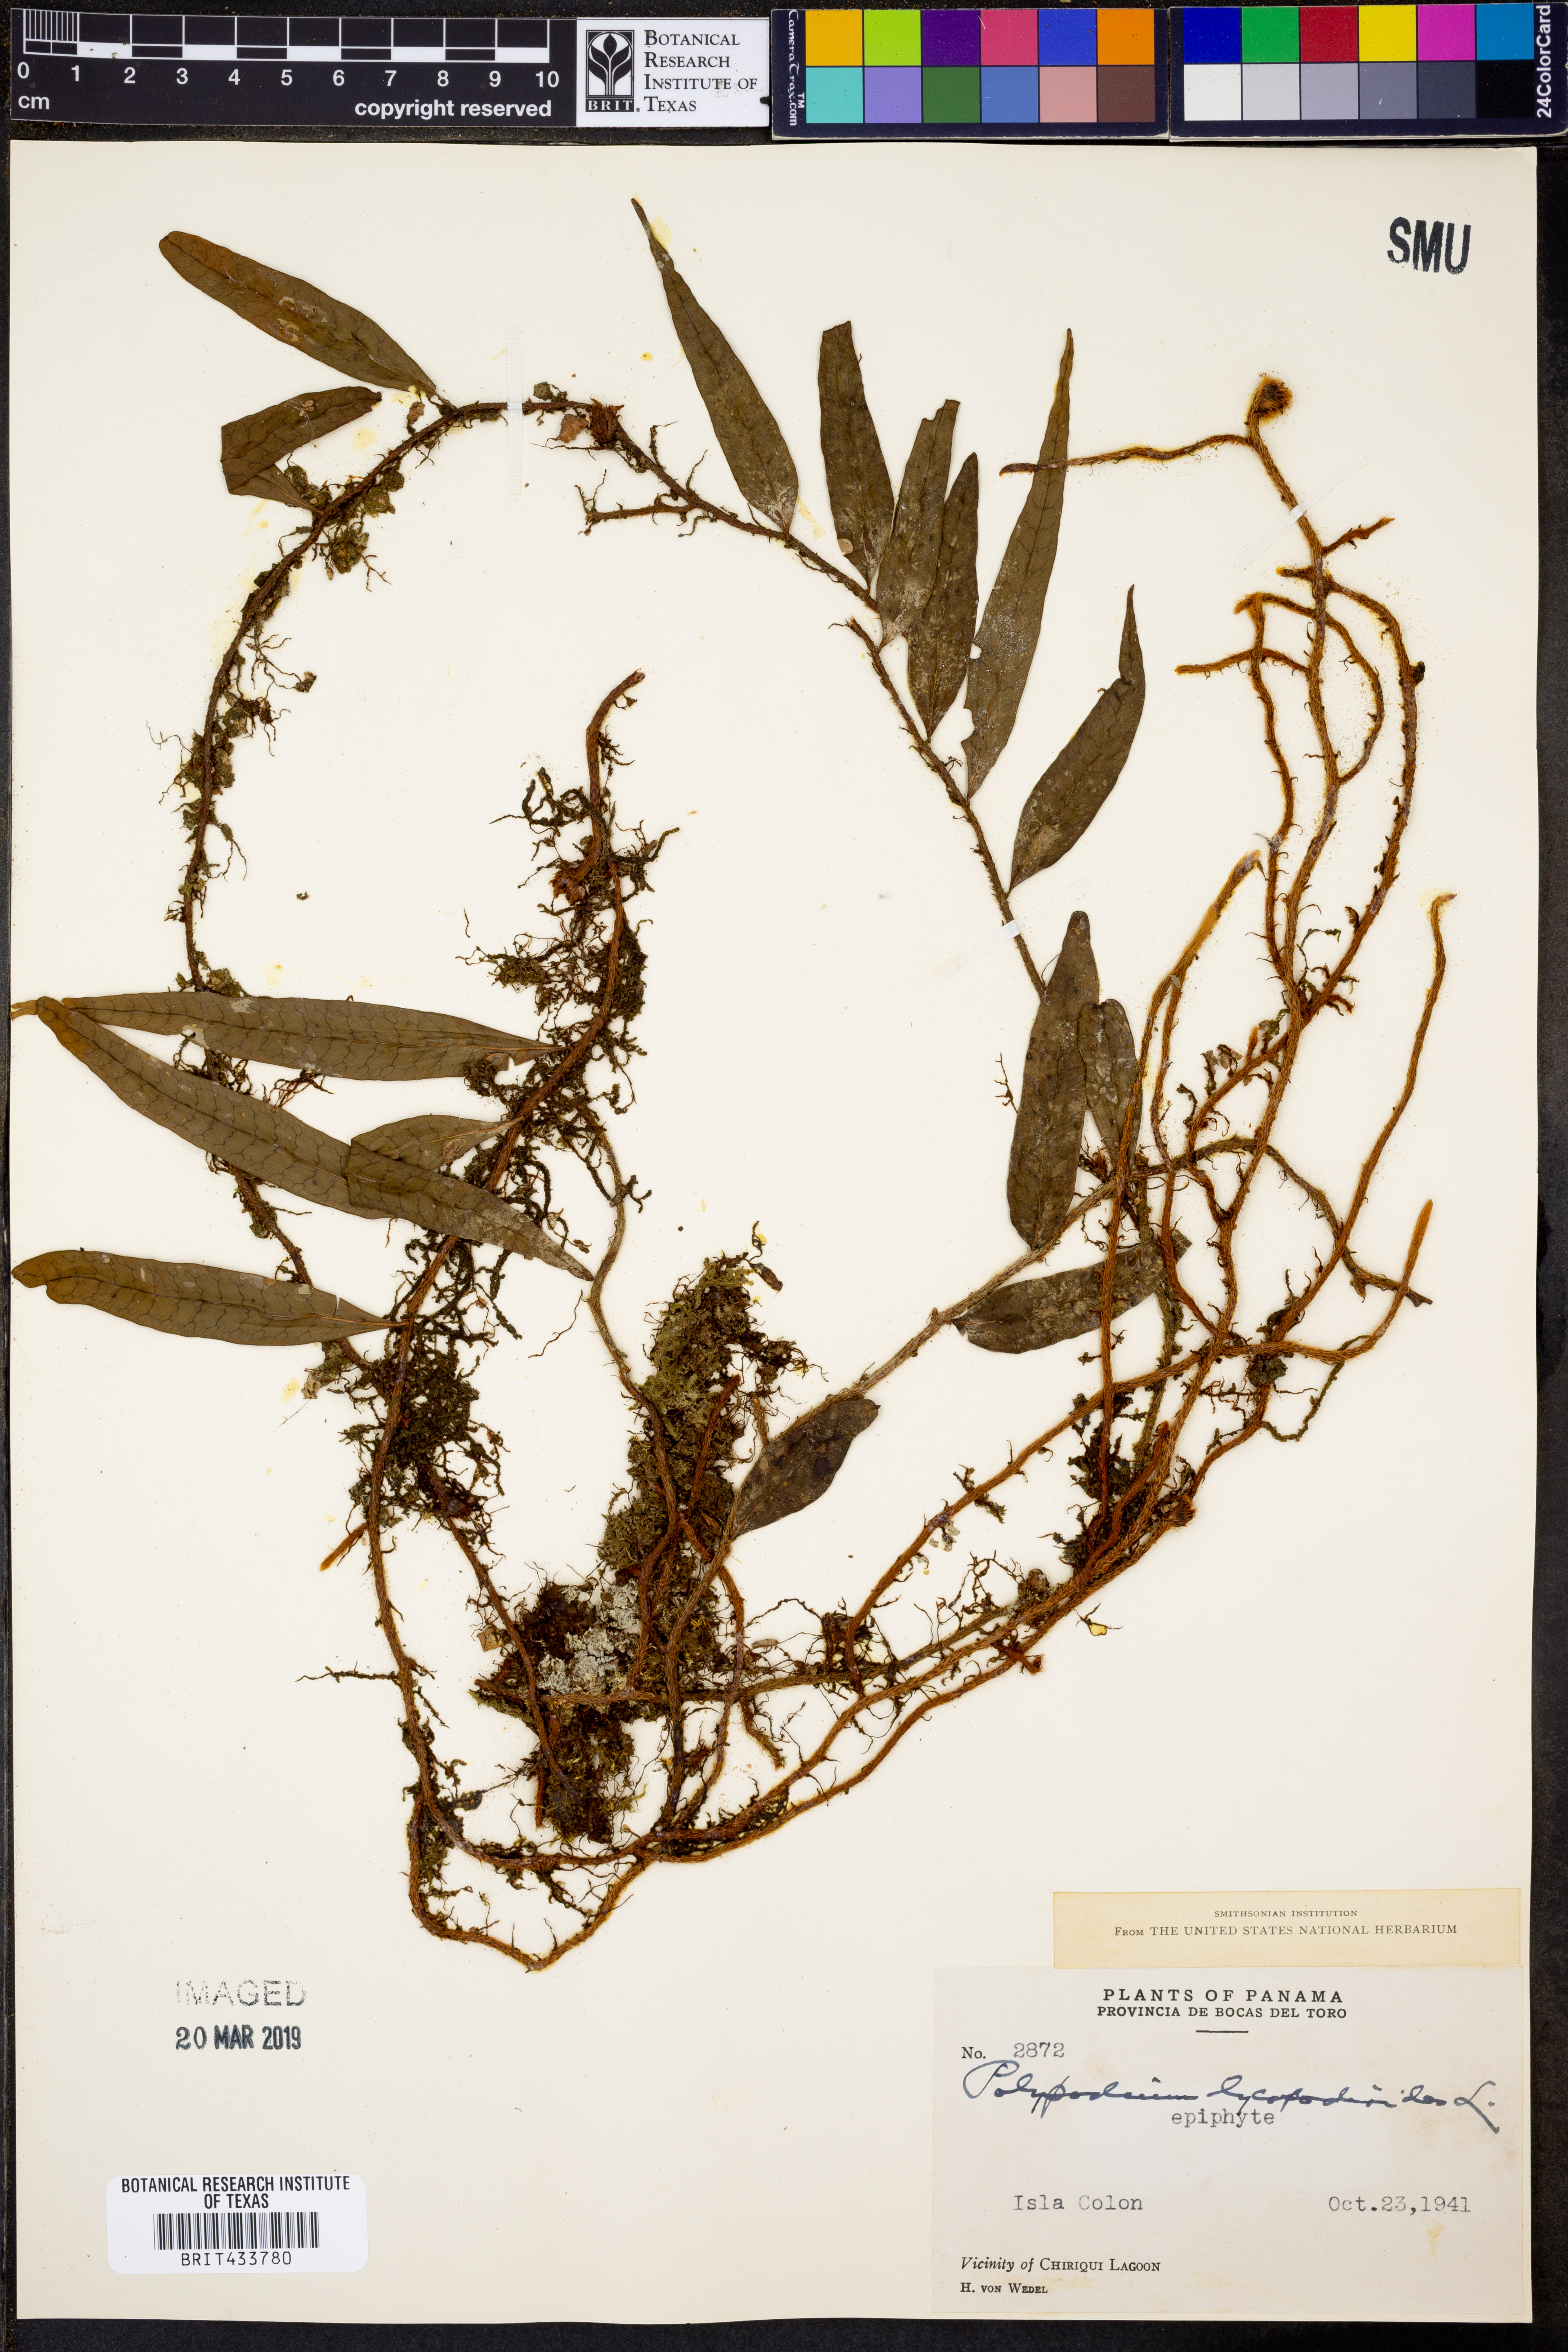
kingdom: Plantae
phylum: Tracheophyta
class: Polypodiopsida
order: Polypodiales
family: Polypodiaceae
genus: Microgramma
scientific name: Microgramma lycopodioides
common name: Bastard catclaw
